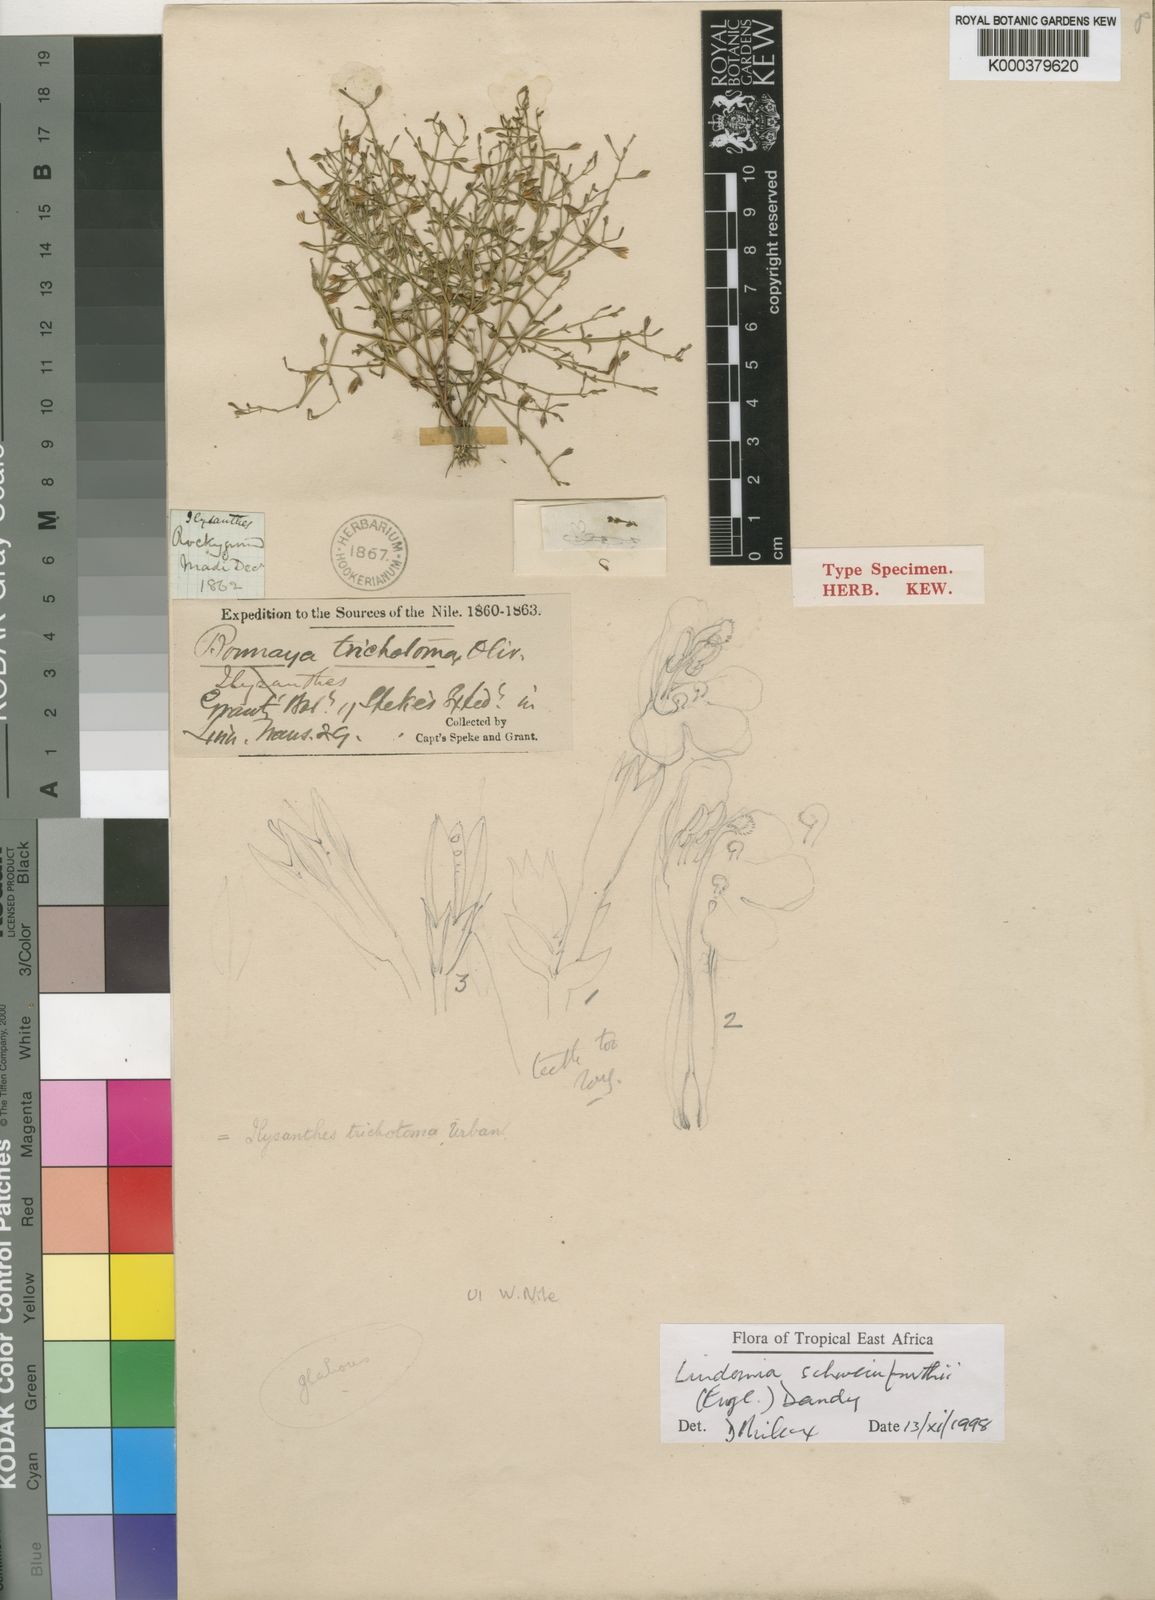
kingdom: Plantae
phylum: Tracheophyta
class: Magnoliopsida
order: Lamiales
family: Linderniaceae
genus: Linderniella
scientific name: Linderniella trichotoma
